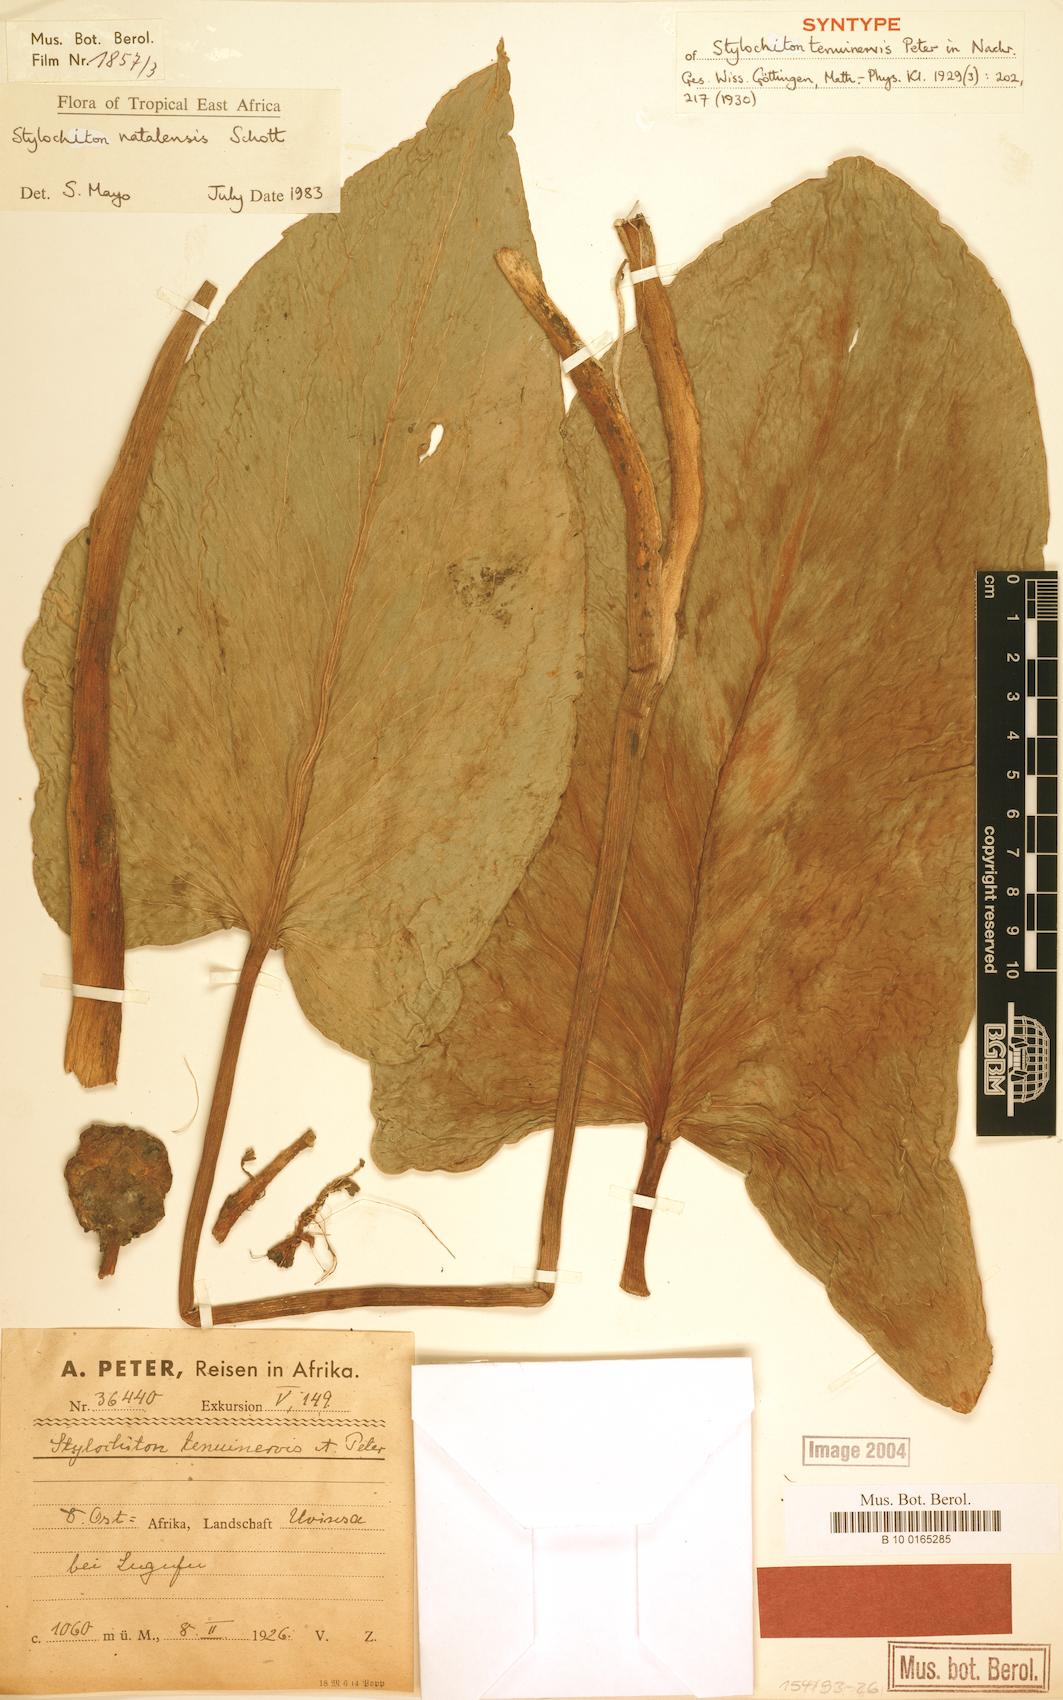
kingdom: Plantae
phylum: Tracheophyta
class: Liliopsida
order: Alismatales
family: Araceae
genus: Stylochiton
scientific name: Stylochiton natalensis
